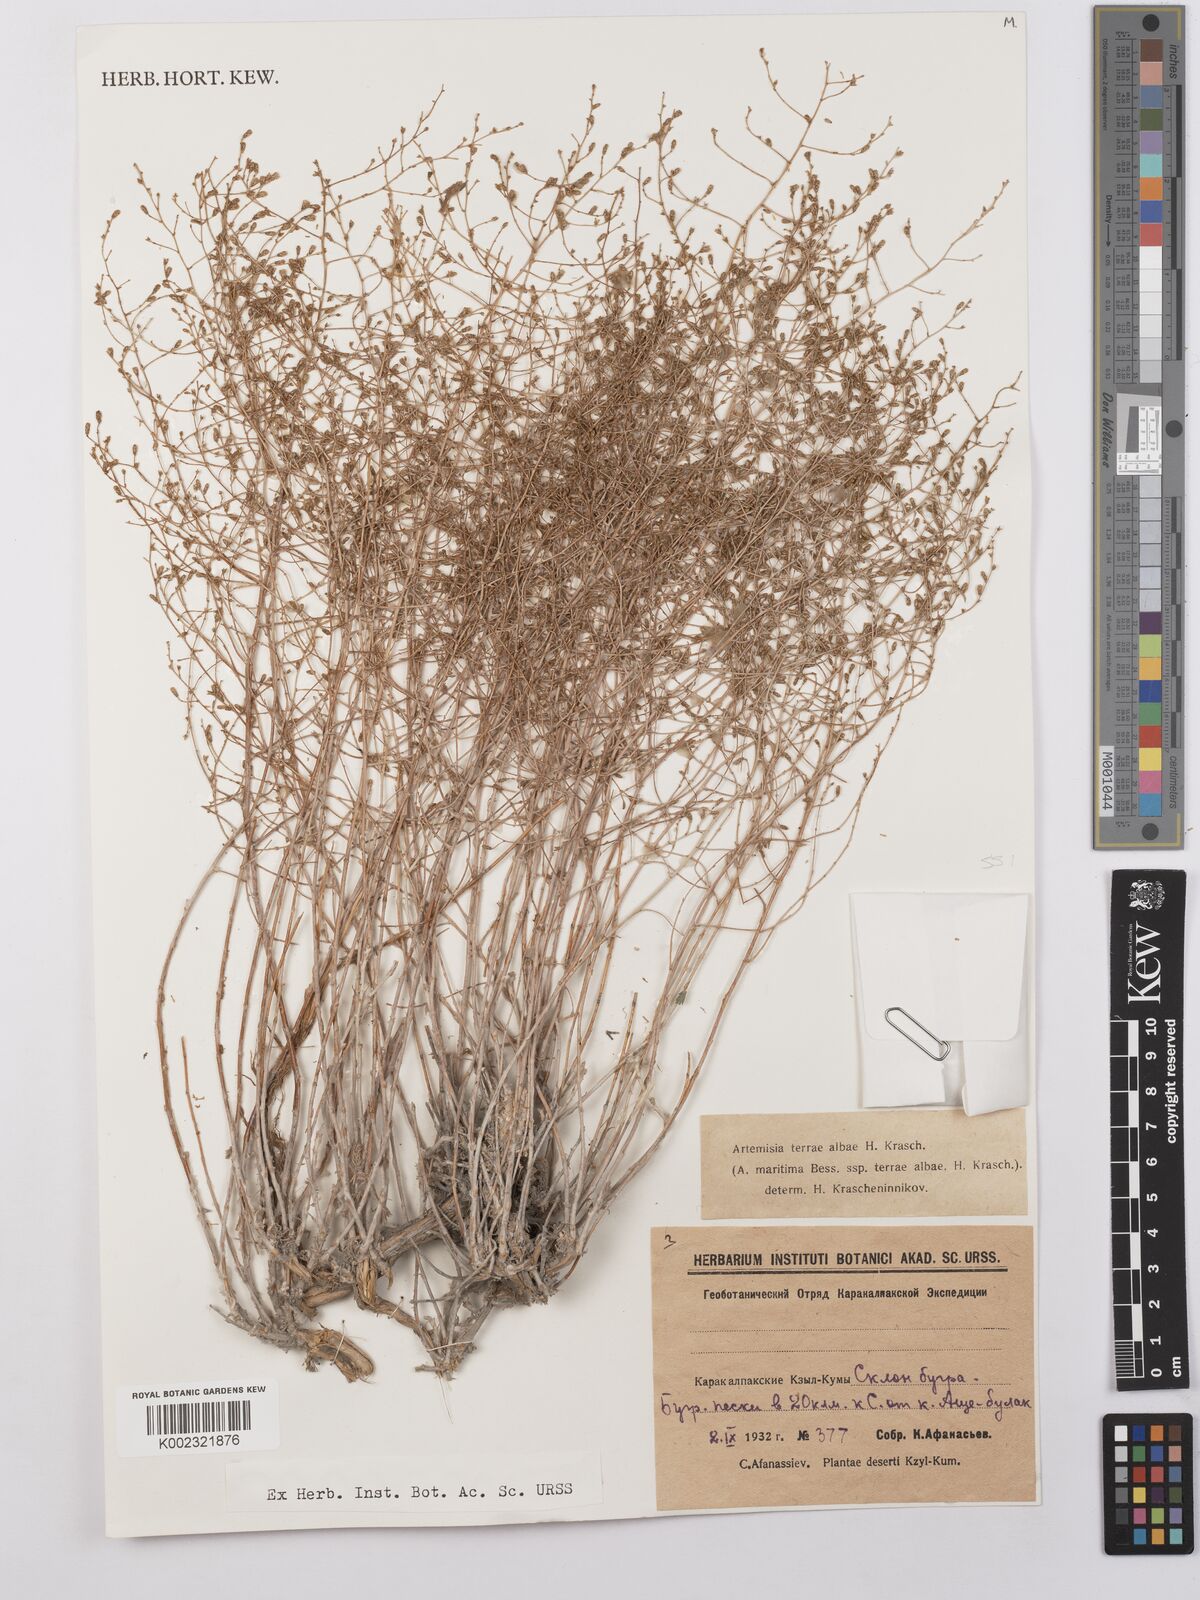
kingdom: Plantae
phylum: Tracheophyta
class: Magnoliopsida
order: Asterales
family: Asteraceae
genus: Artemisia
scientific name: Artemisia terrae-albae
